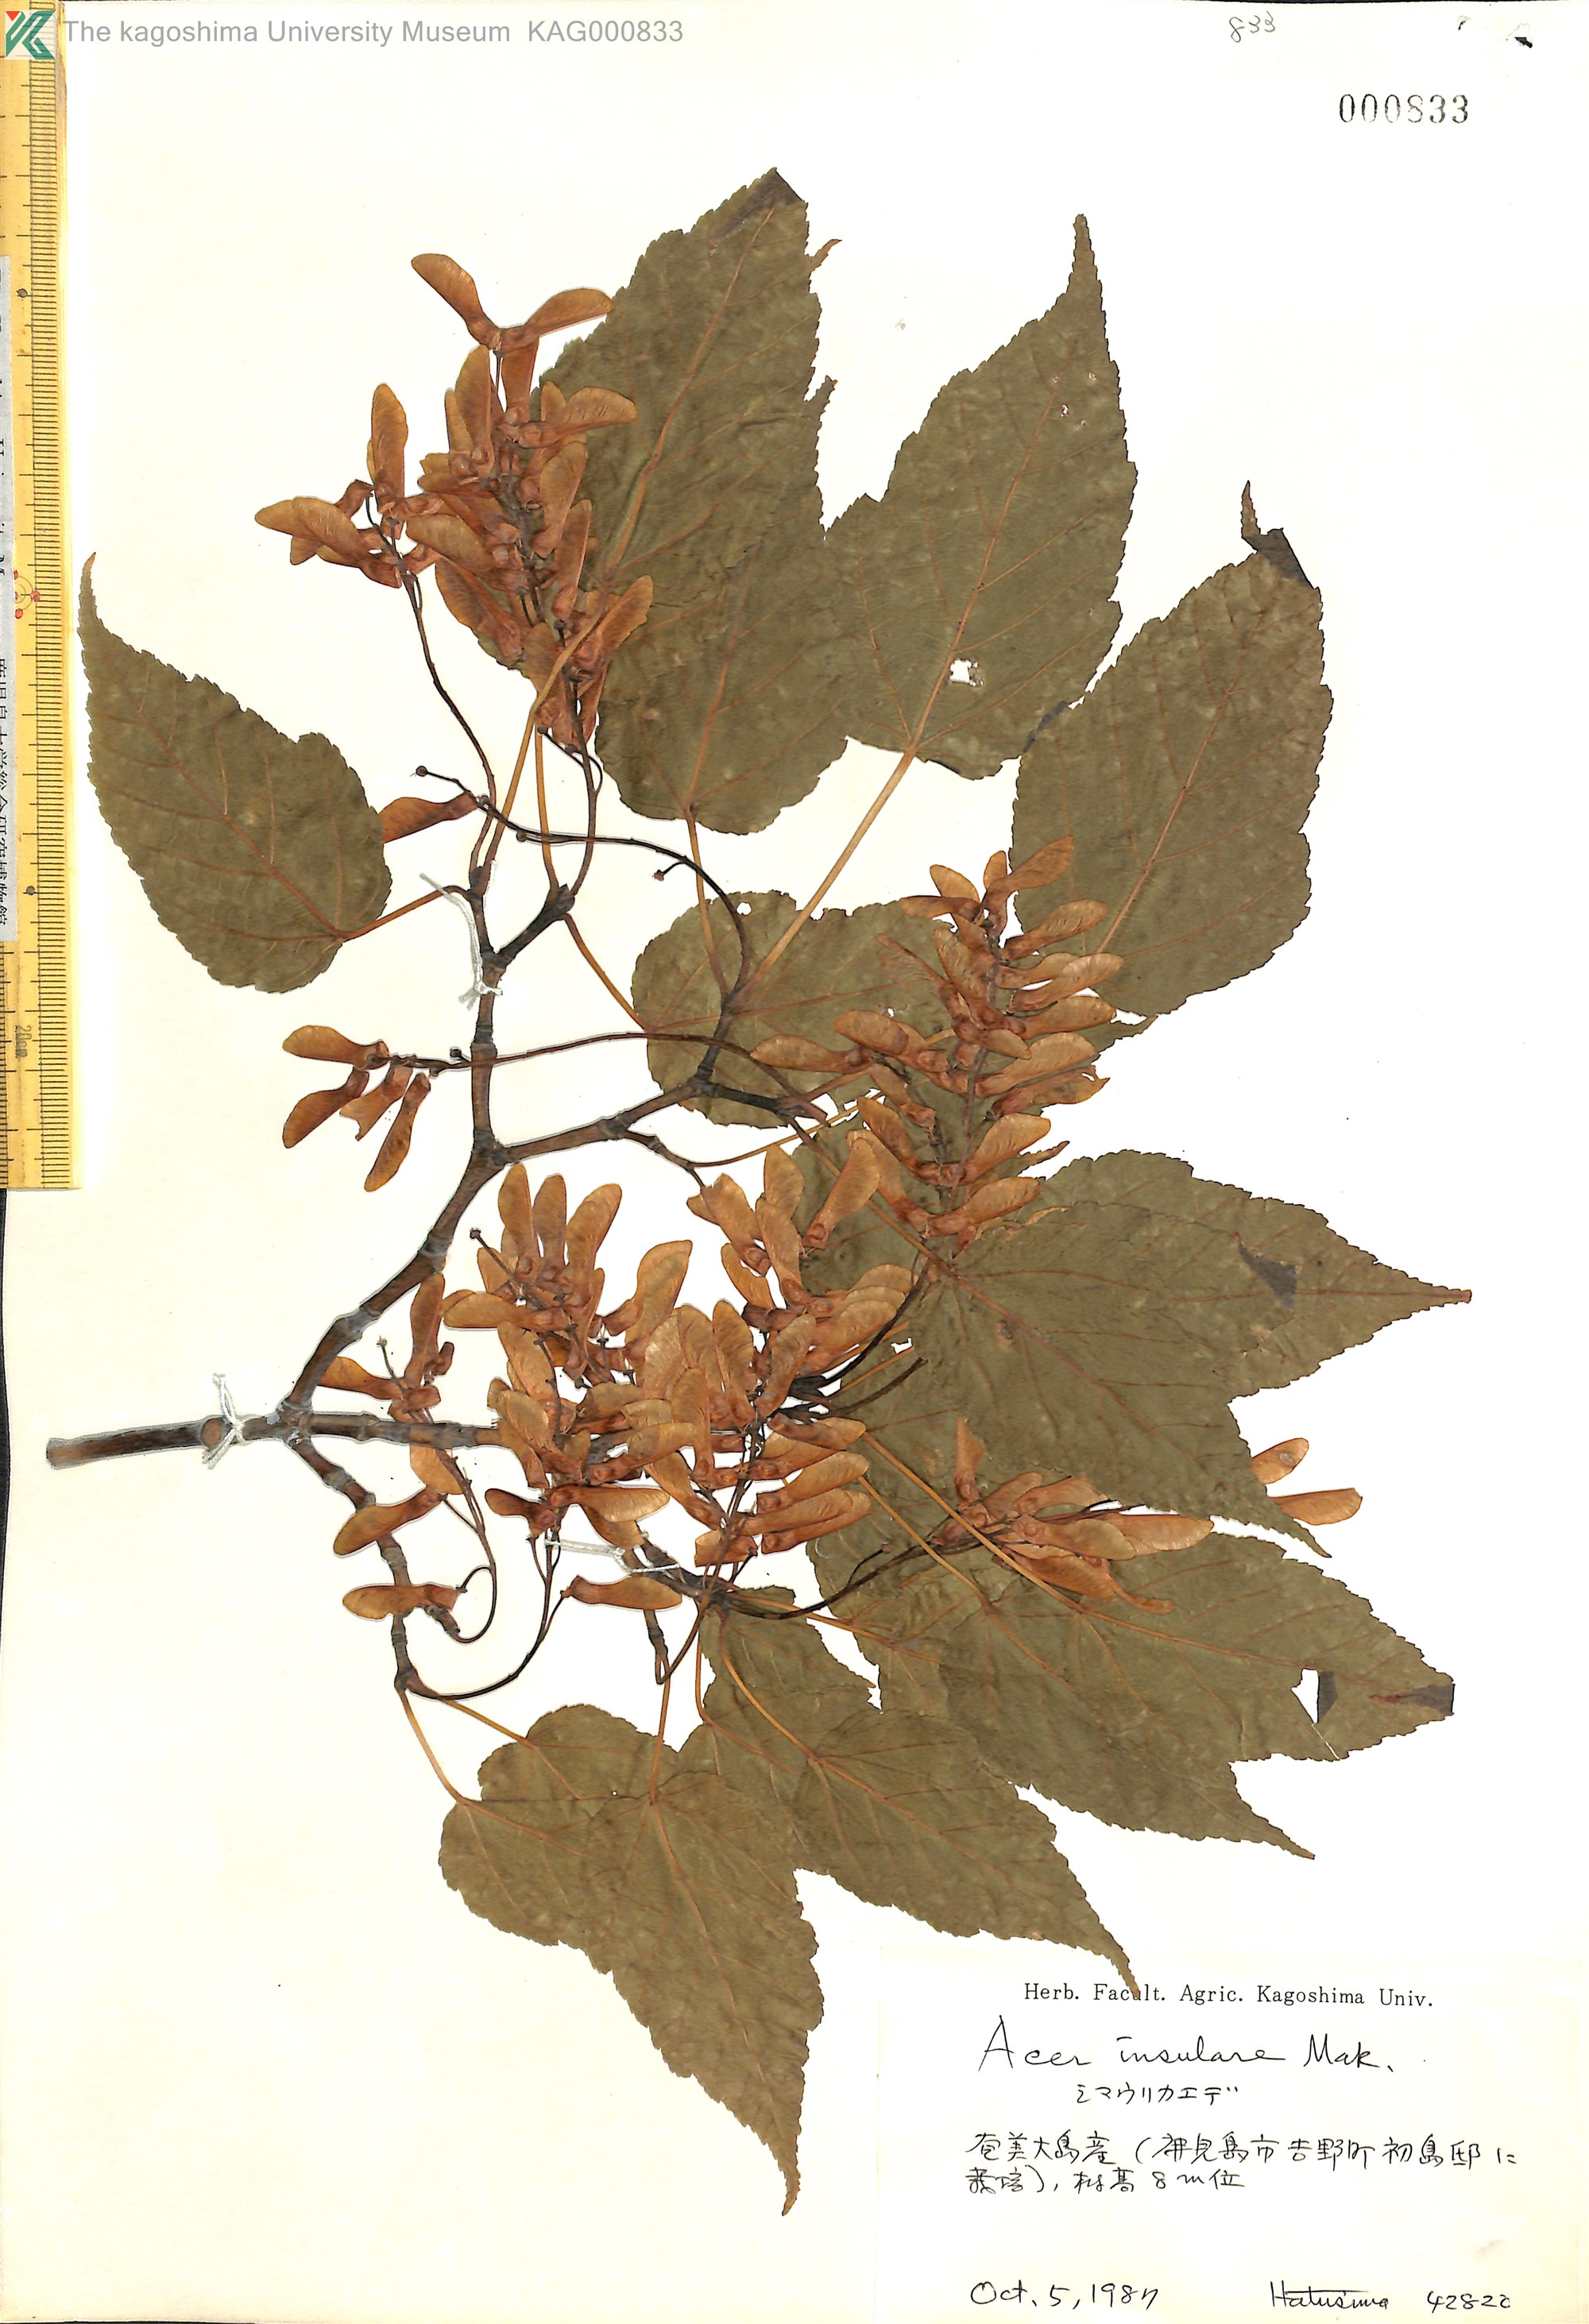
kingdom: Plantae
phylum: Tracheophyta
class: Magnoliopsida
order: Sapindales
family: Sapindaceae
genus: Acer
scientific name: Acer caudatifolium
